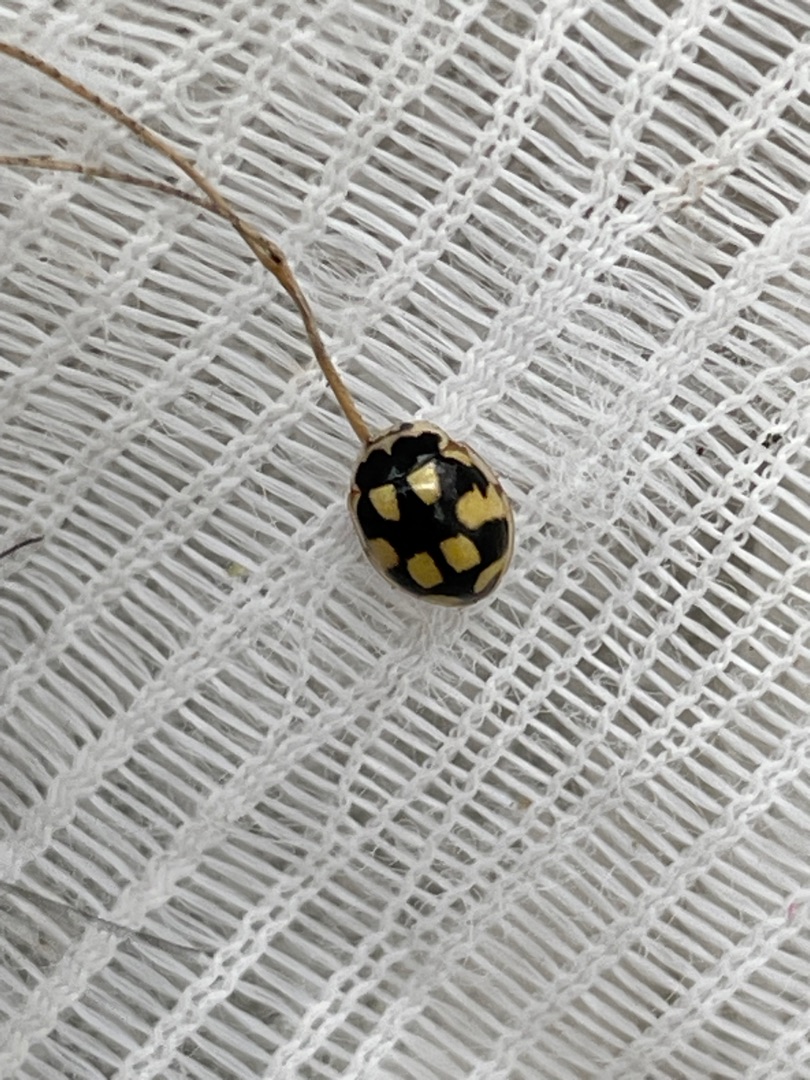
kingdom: Animalia
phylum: Arthropoda
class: Insecta
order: Coleoptera
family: Coccinellidae
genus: Propylaea
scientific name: Propylaea quatuordecimpunctata
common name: Skakbræt
